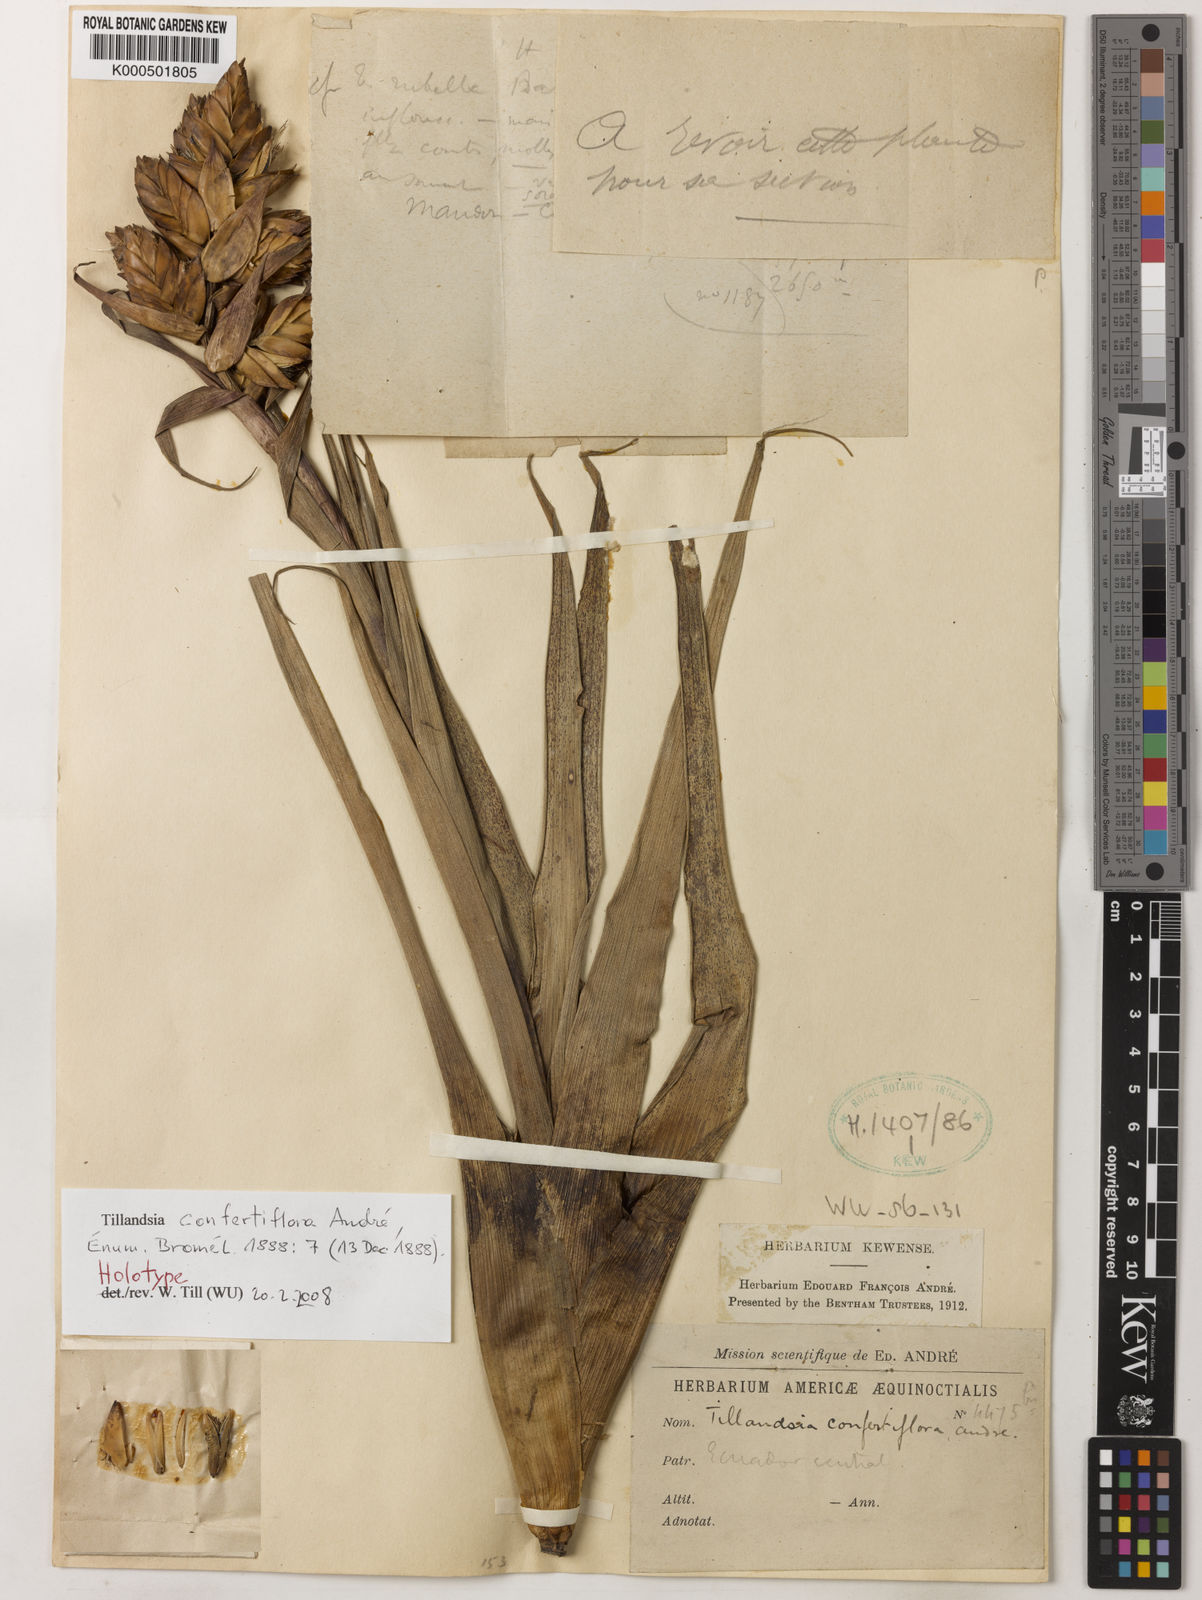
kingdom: Plantae
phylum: Tracheophyta
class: Liliopsida
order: Poales
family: Bromeliaceae
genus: Tillandsia
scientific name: Tillandsia
